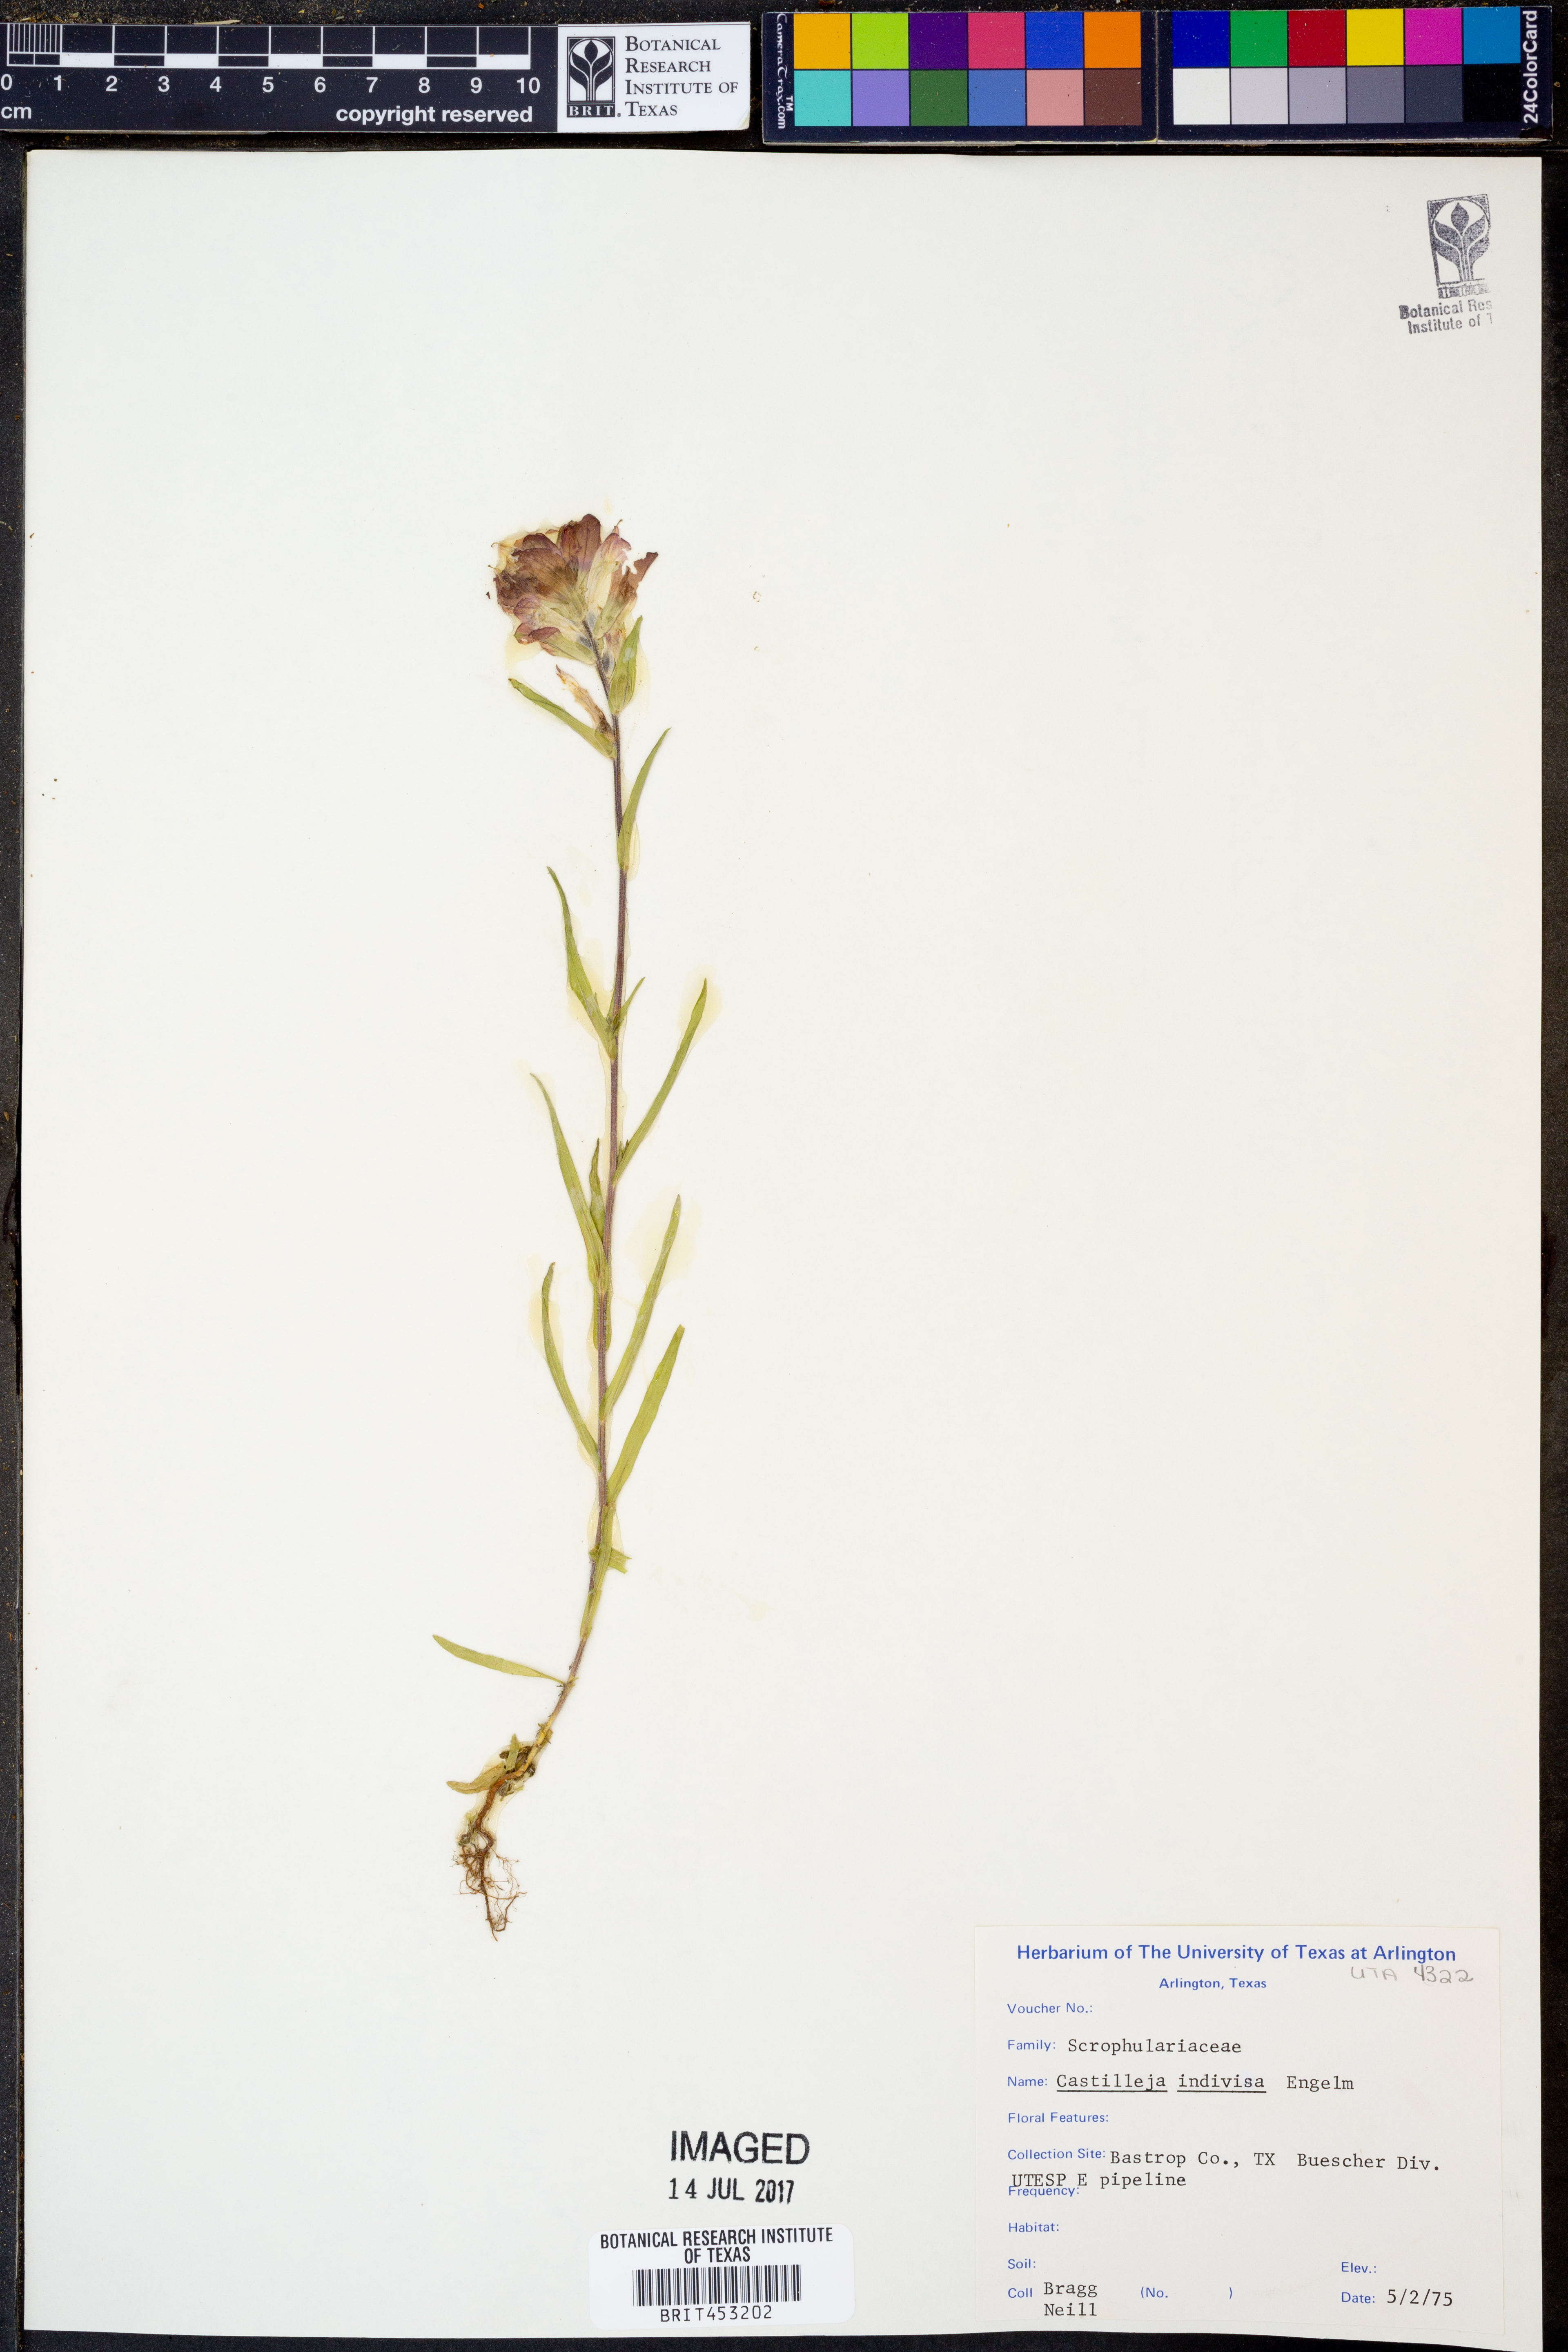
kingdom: Plantae
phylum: Tracheophyta
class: Magnoliopsida
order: Lamiales
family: Orobanchaceae
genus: Castilleja
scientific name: Castilleja indivisa
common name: Texas paintbrush
